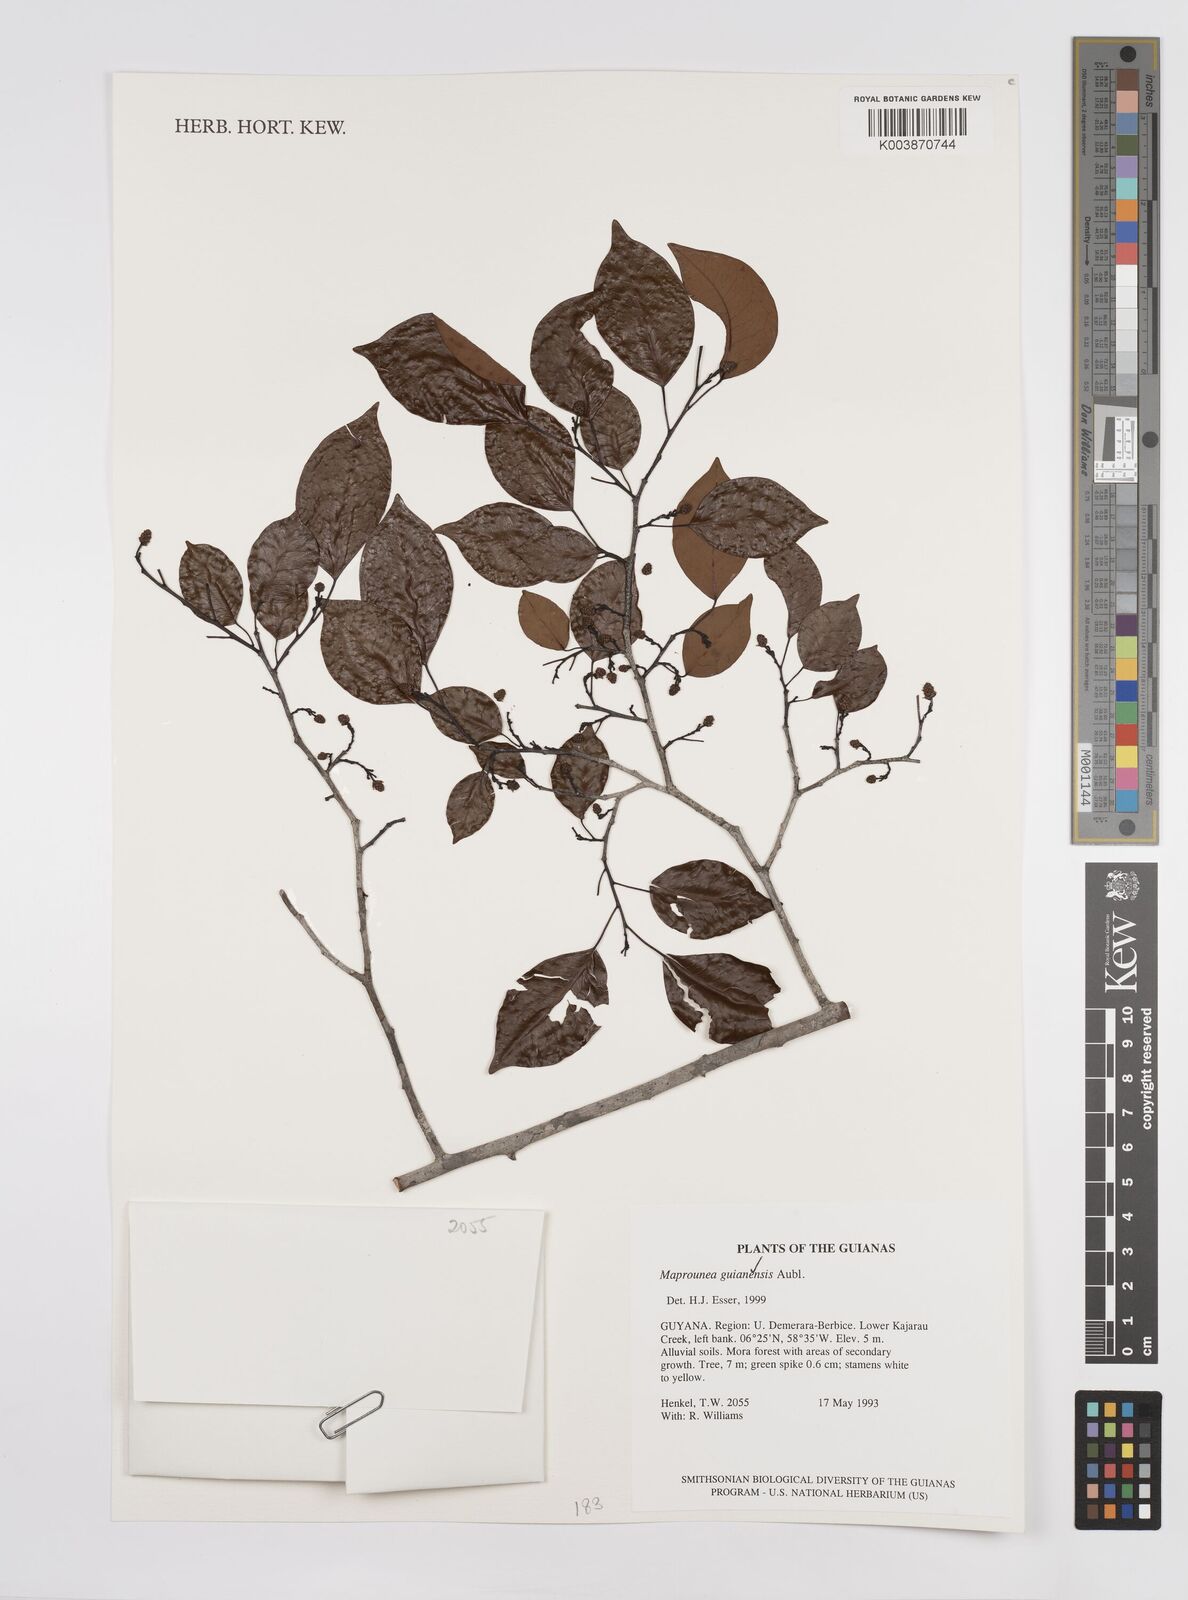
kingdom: Plantae
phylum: Tracheophyta
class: Magnoliopsida
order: Malpighiales
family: Euphorbiaceae
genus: Maprounea
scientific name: Maprounea guianensis
